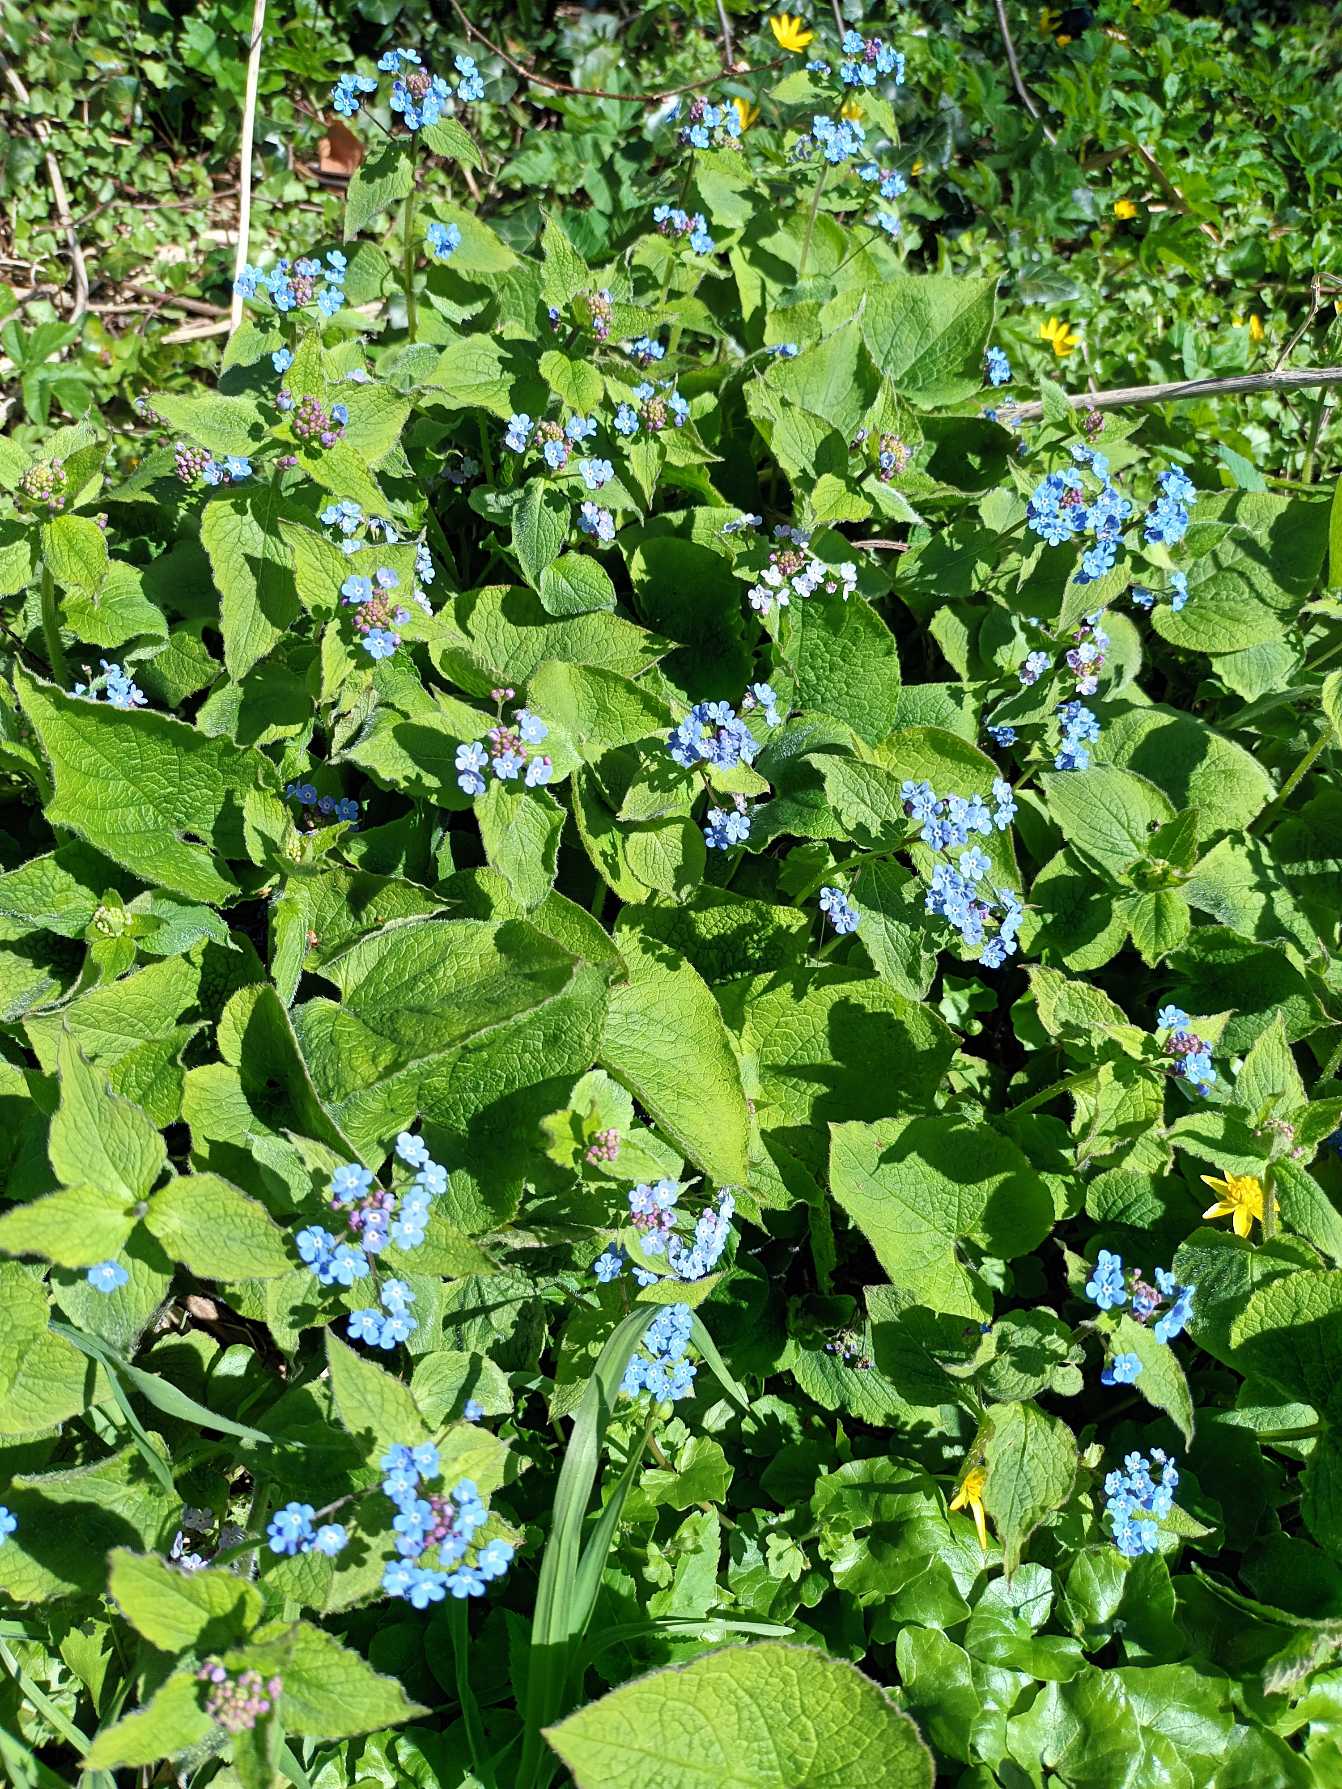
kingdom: Plantae
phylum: Tracheophyta
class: Magnoliopsida
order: Boraginales
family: Boraginaceae
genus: Brunnera
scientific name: Brunnera macrophylla
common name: Kærmindesøster
